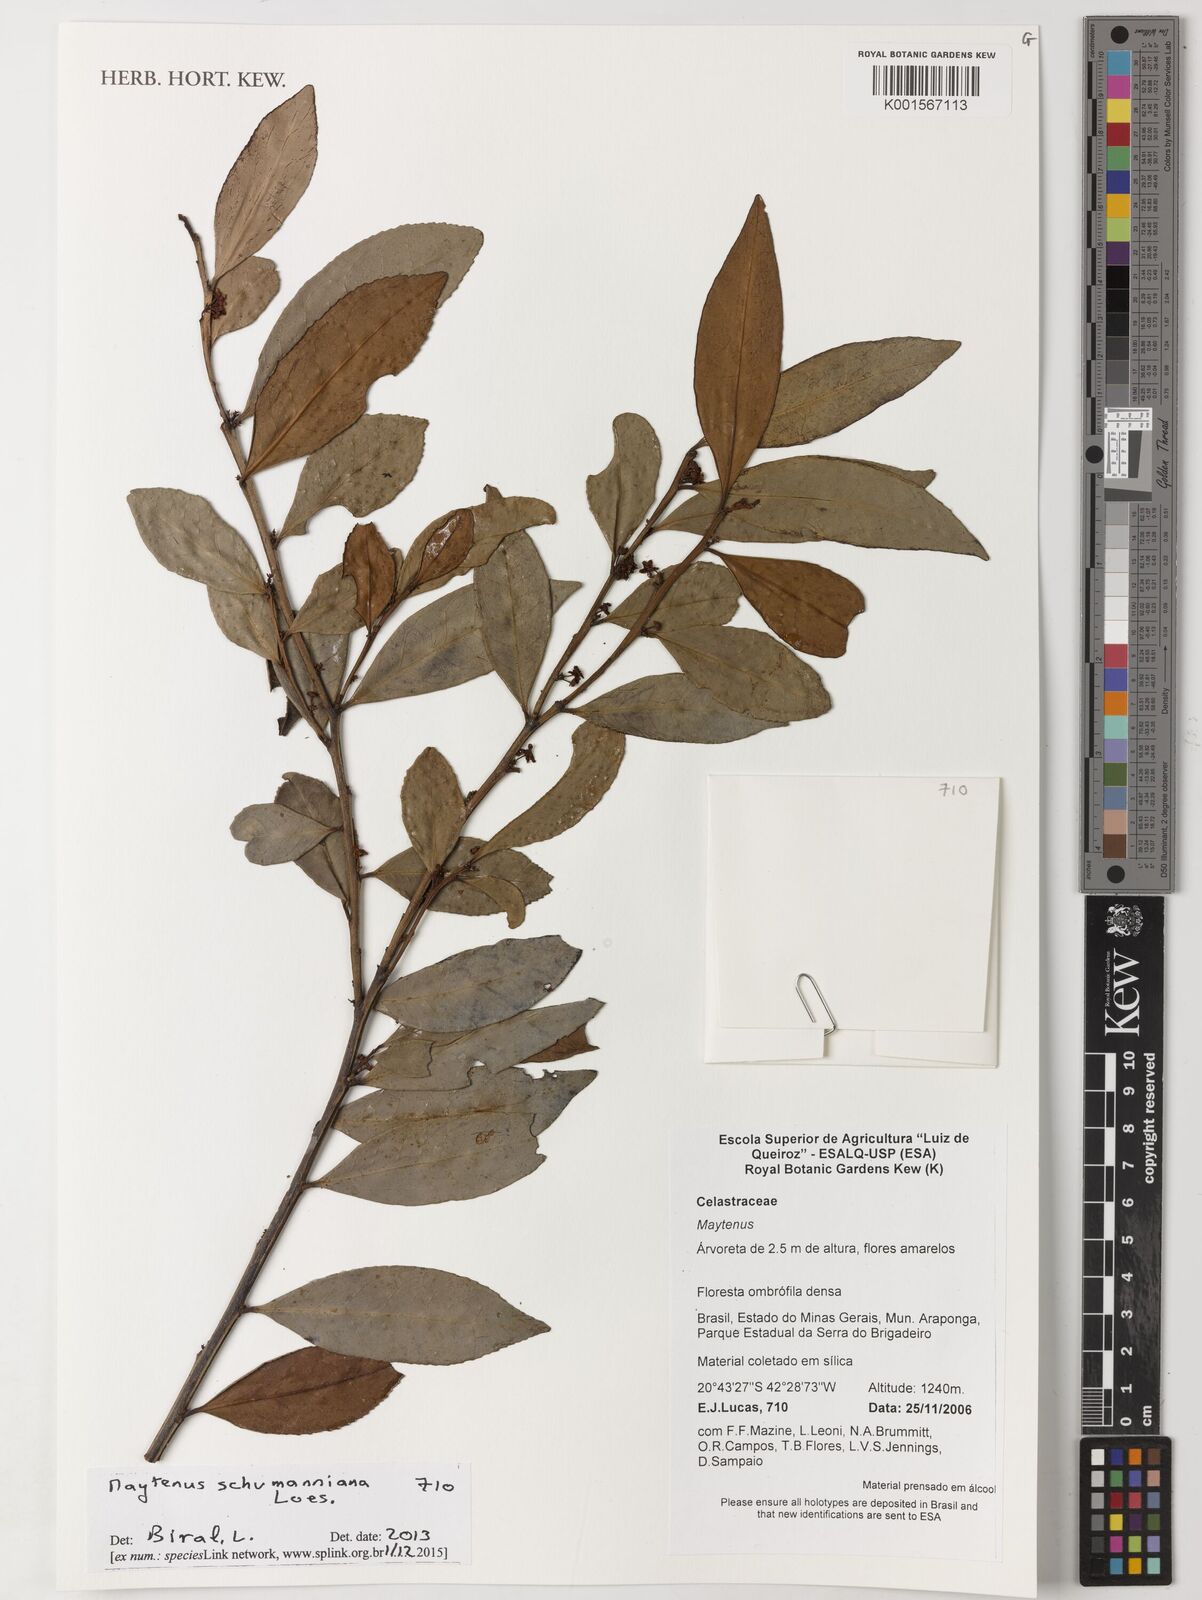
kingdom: Plantae
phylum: Tracheophyta
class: Magnoliopsida
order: Celastrales
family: Celastraceae
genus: Monteverdia
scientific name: Monteverdia schumanniana
